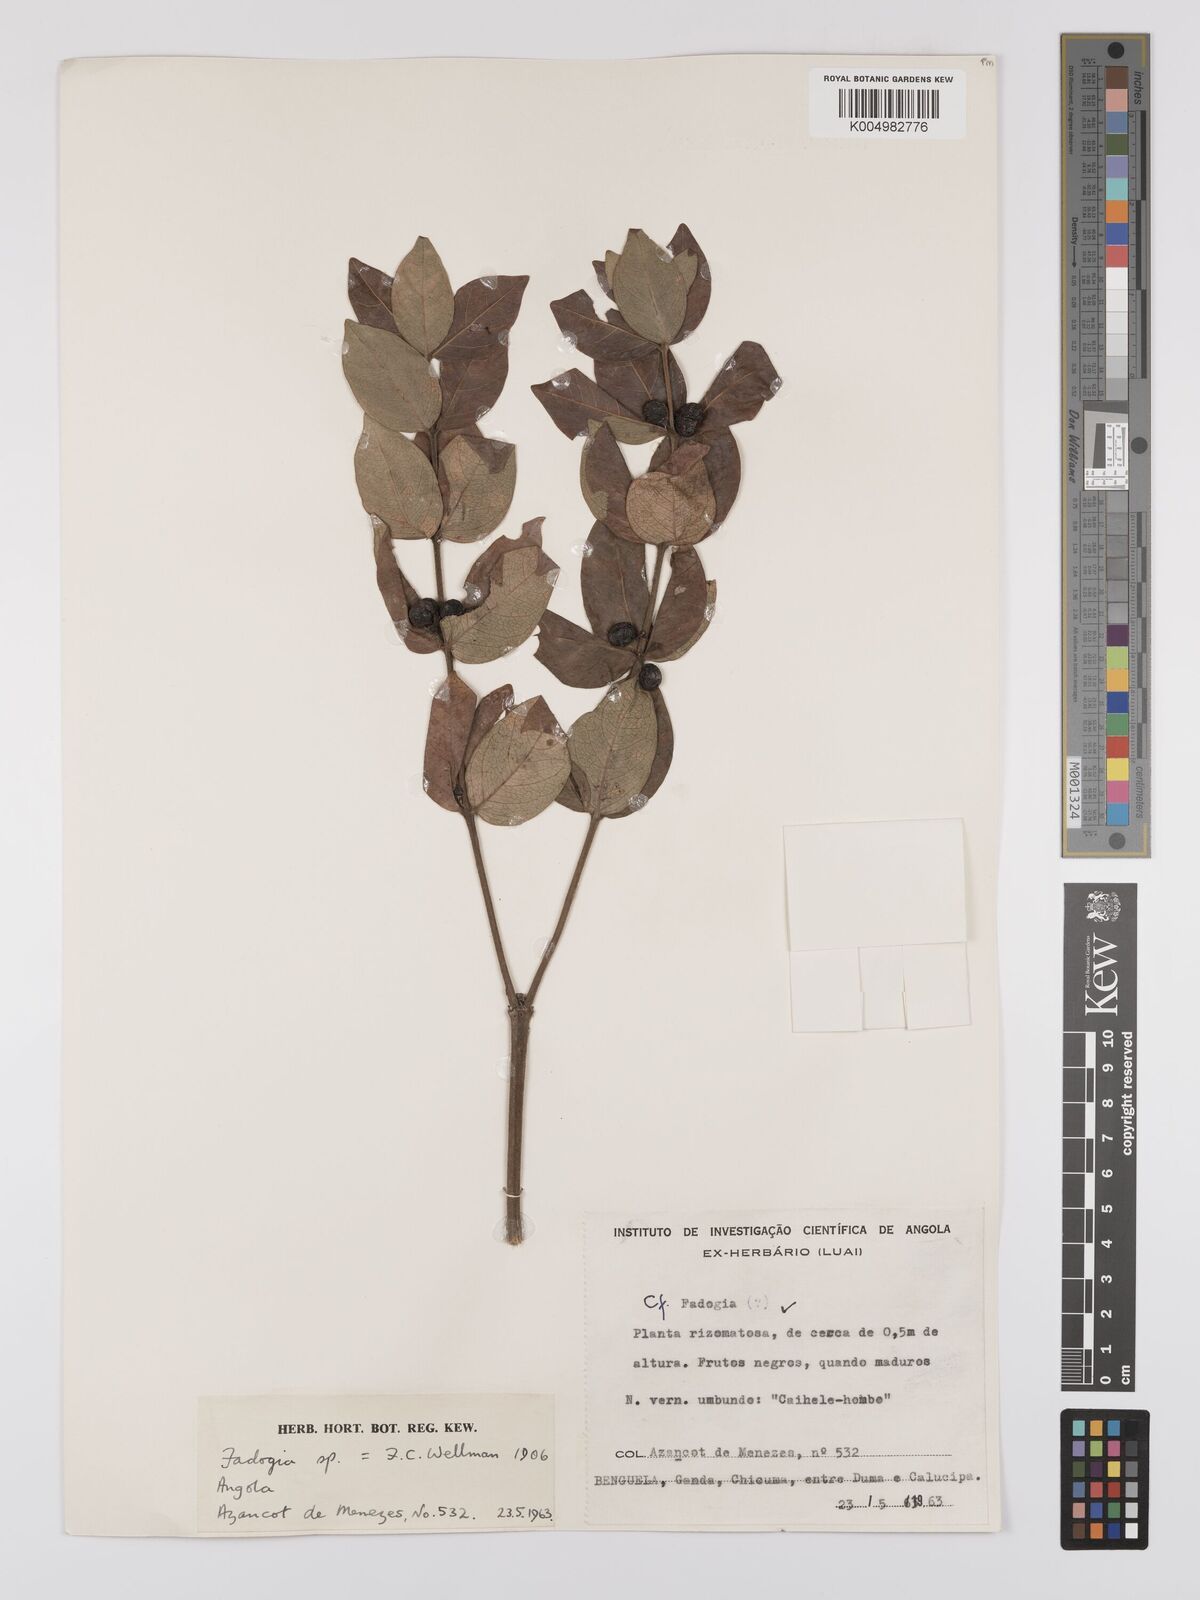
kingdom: Plantae
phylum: Tracheophyta
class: Magnoliopsida
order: Gentianales
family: Rubiaceae
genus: Fadogia
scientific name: Fadogia
